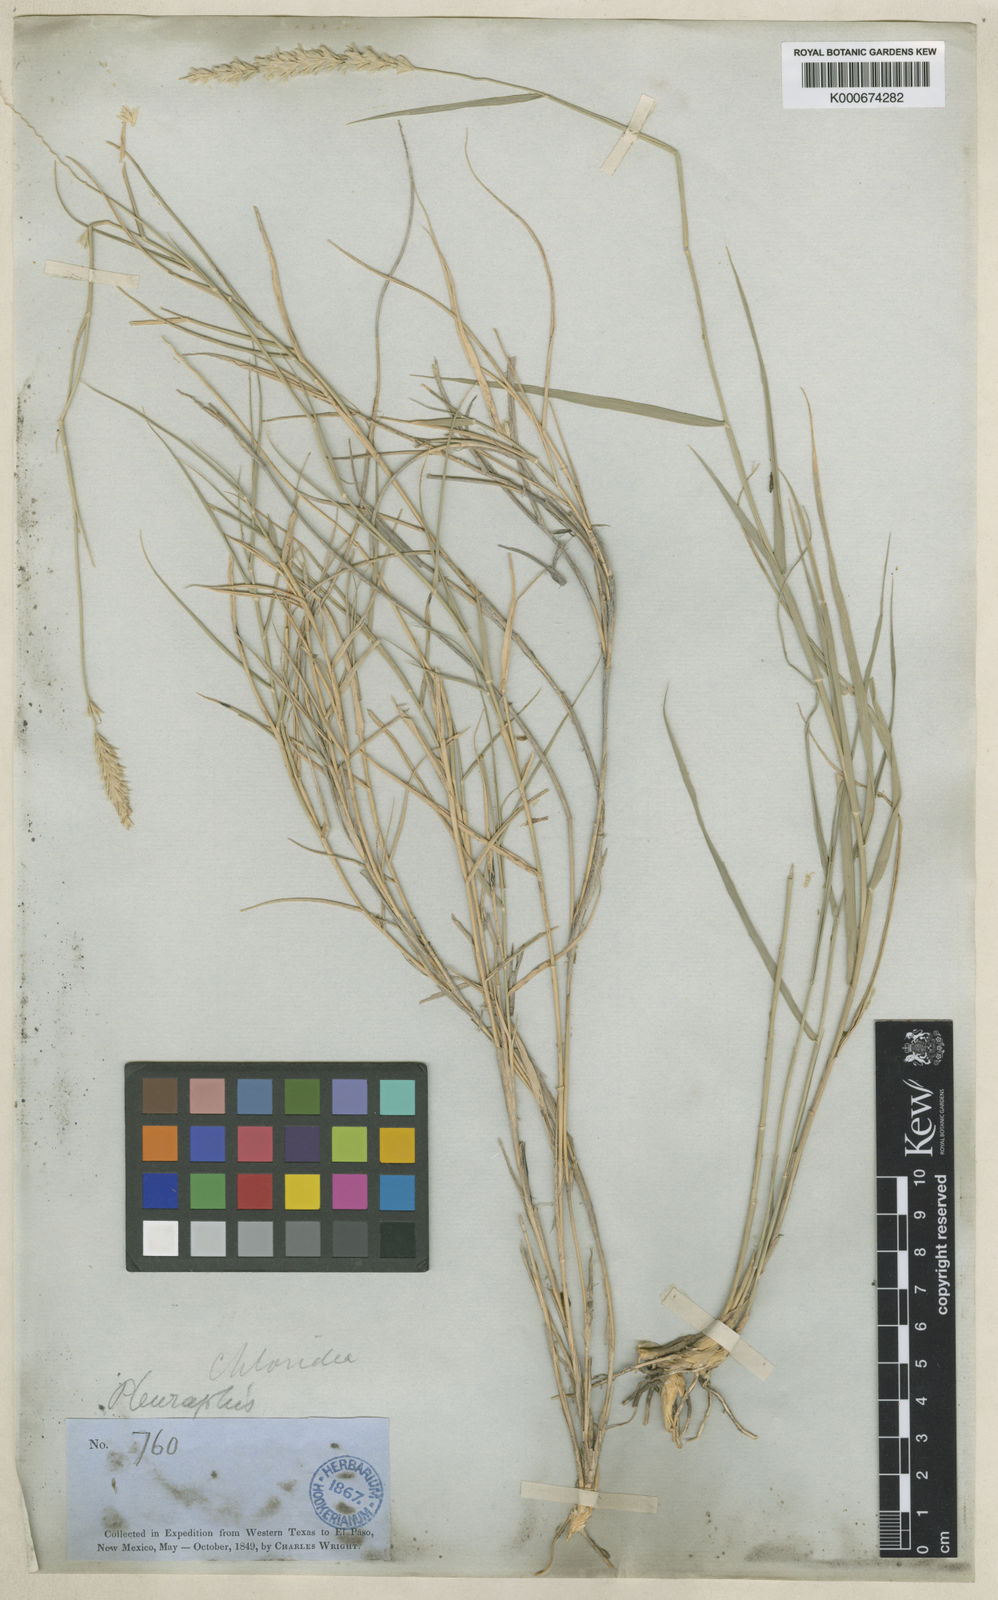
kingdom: Plantae
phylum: Tracheophyta
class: Liliopsida
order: Poales
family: Poaceae
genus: Hilaria
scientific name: Hilaria mutica
